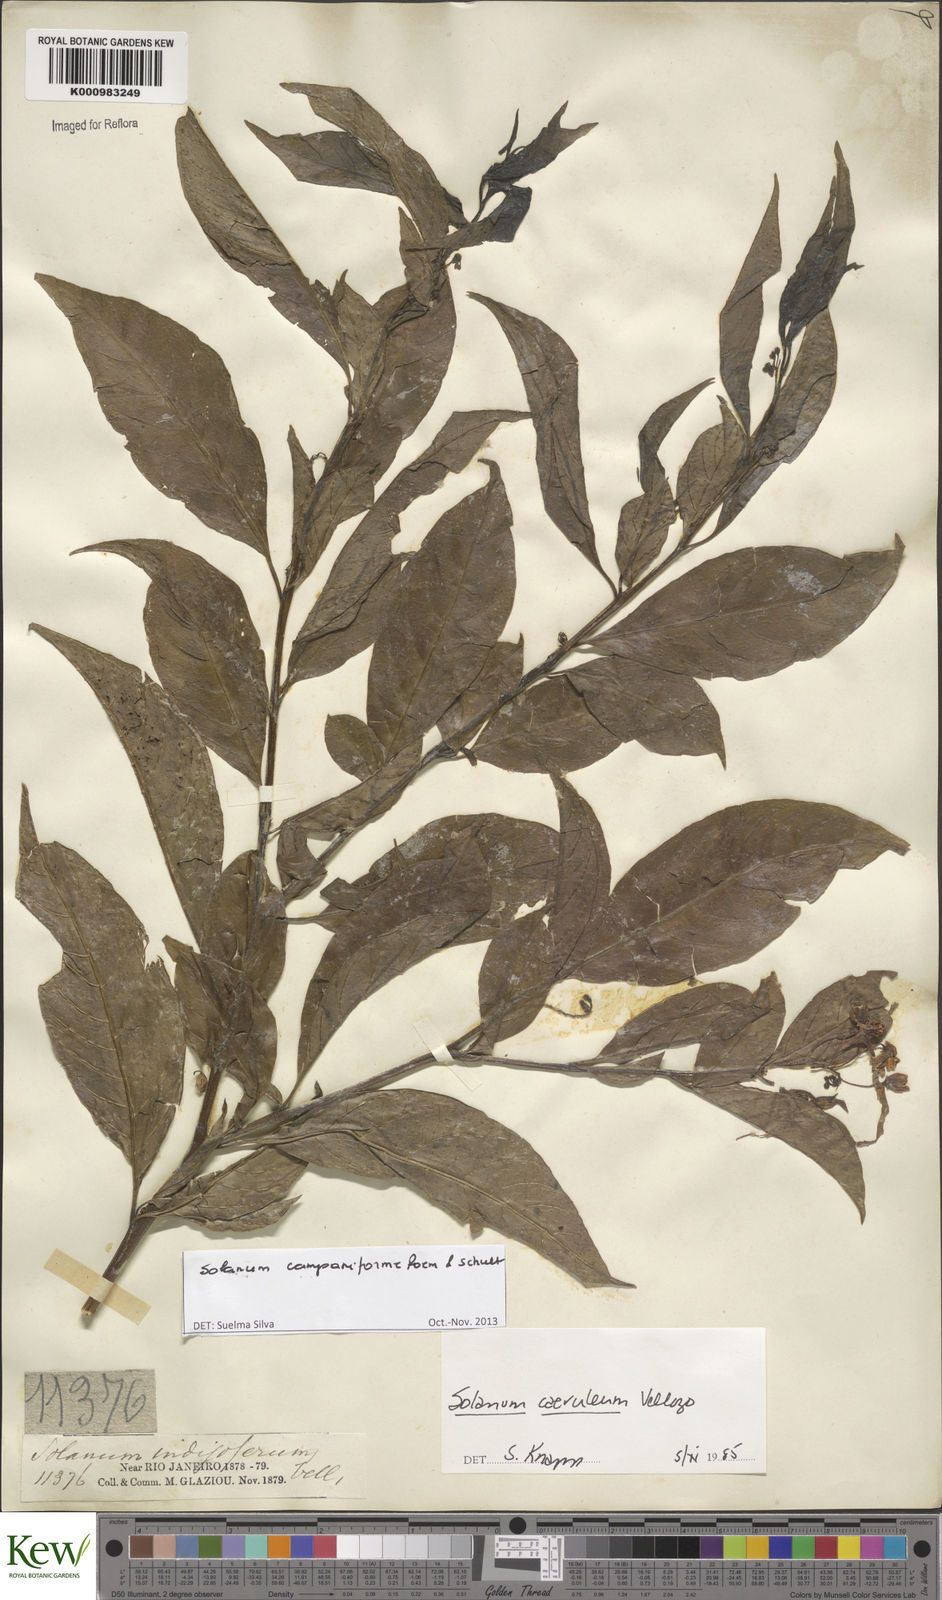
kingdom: Plantae
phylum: Tracheophyta
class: Magnoliopsida
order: Solanales
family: Solanaceae
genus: Solanum
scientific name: Solanum campaniforme
